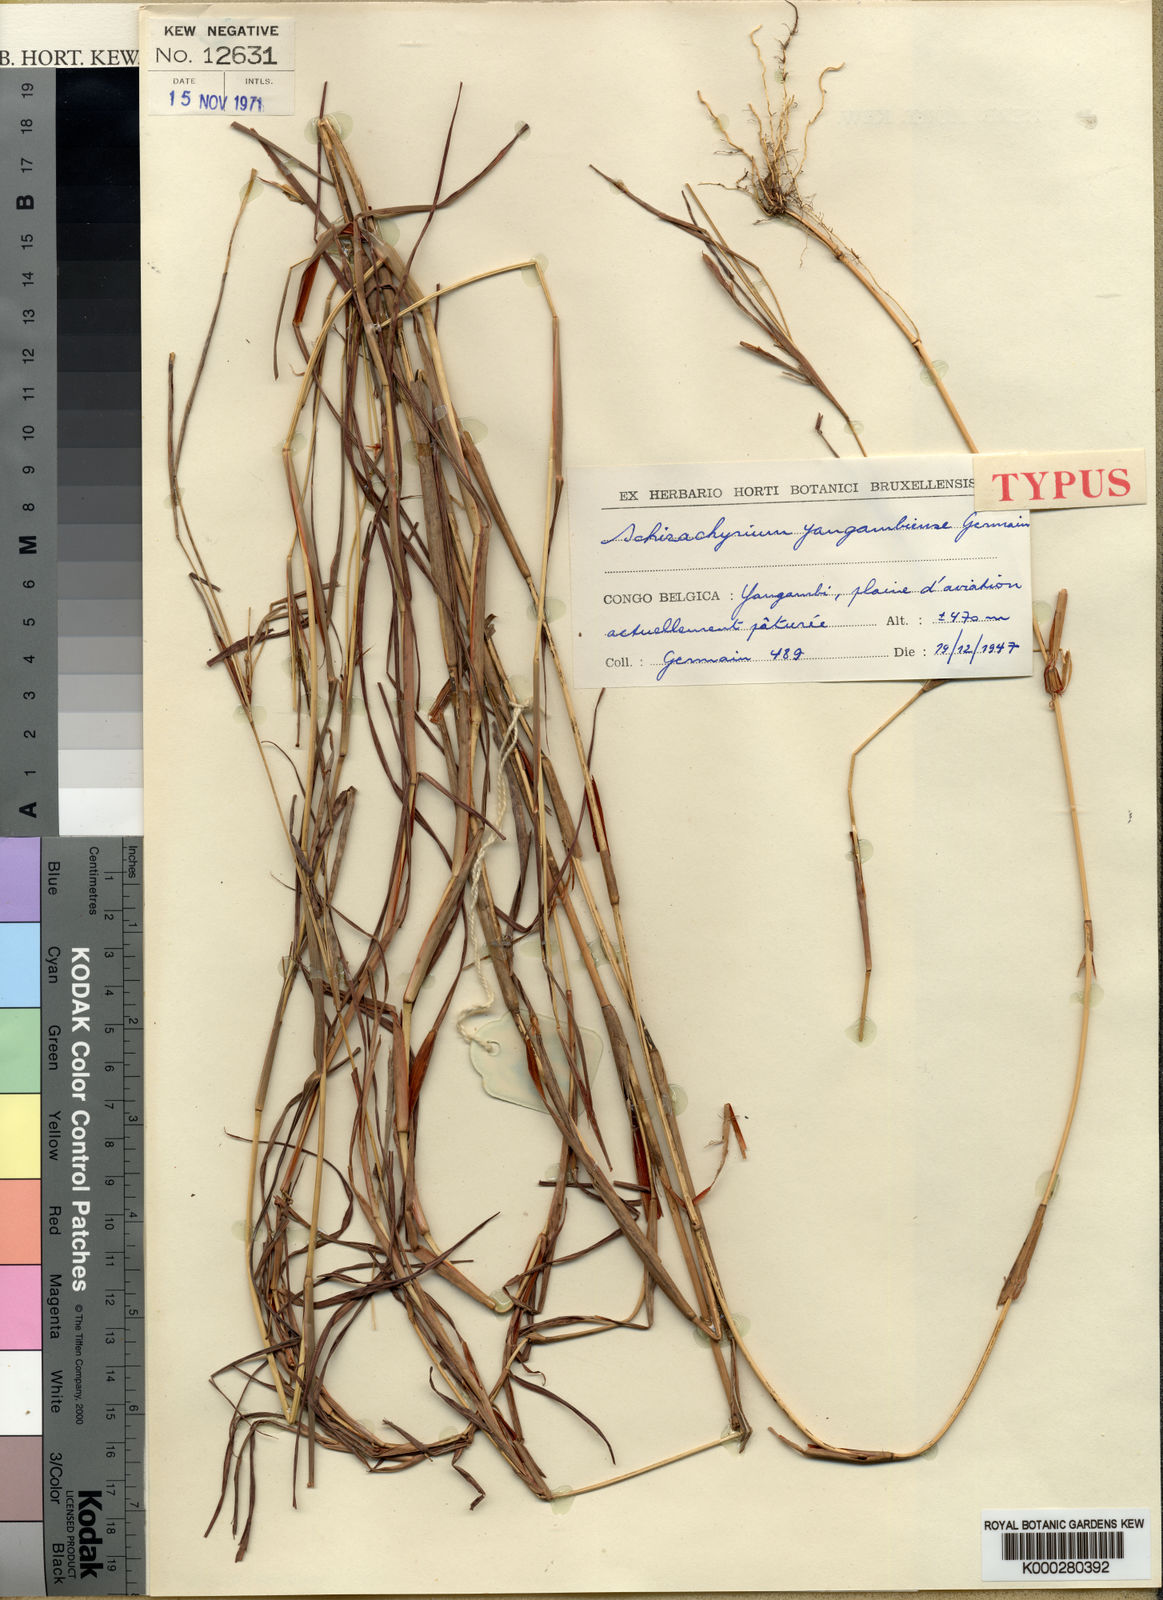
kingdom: Plantae
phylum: Tracheophyta
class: Liliopsida
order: Poales
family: Poaceae
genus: Schizachyrium
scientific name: Schizachyrium yangambiense
